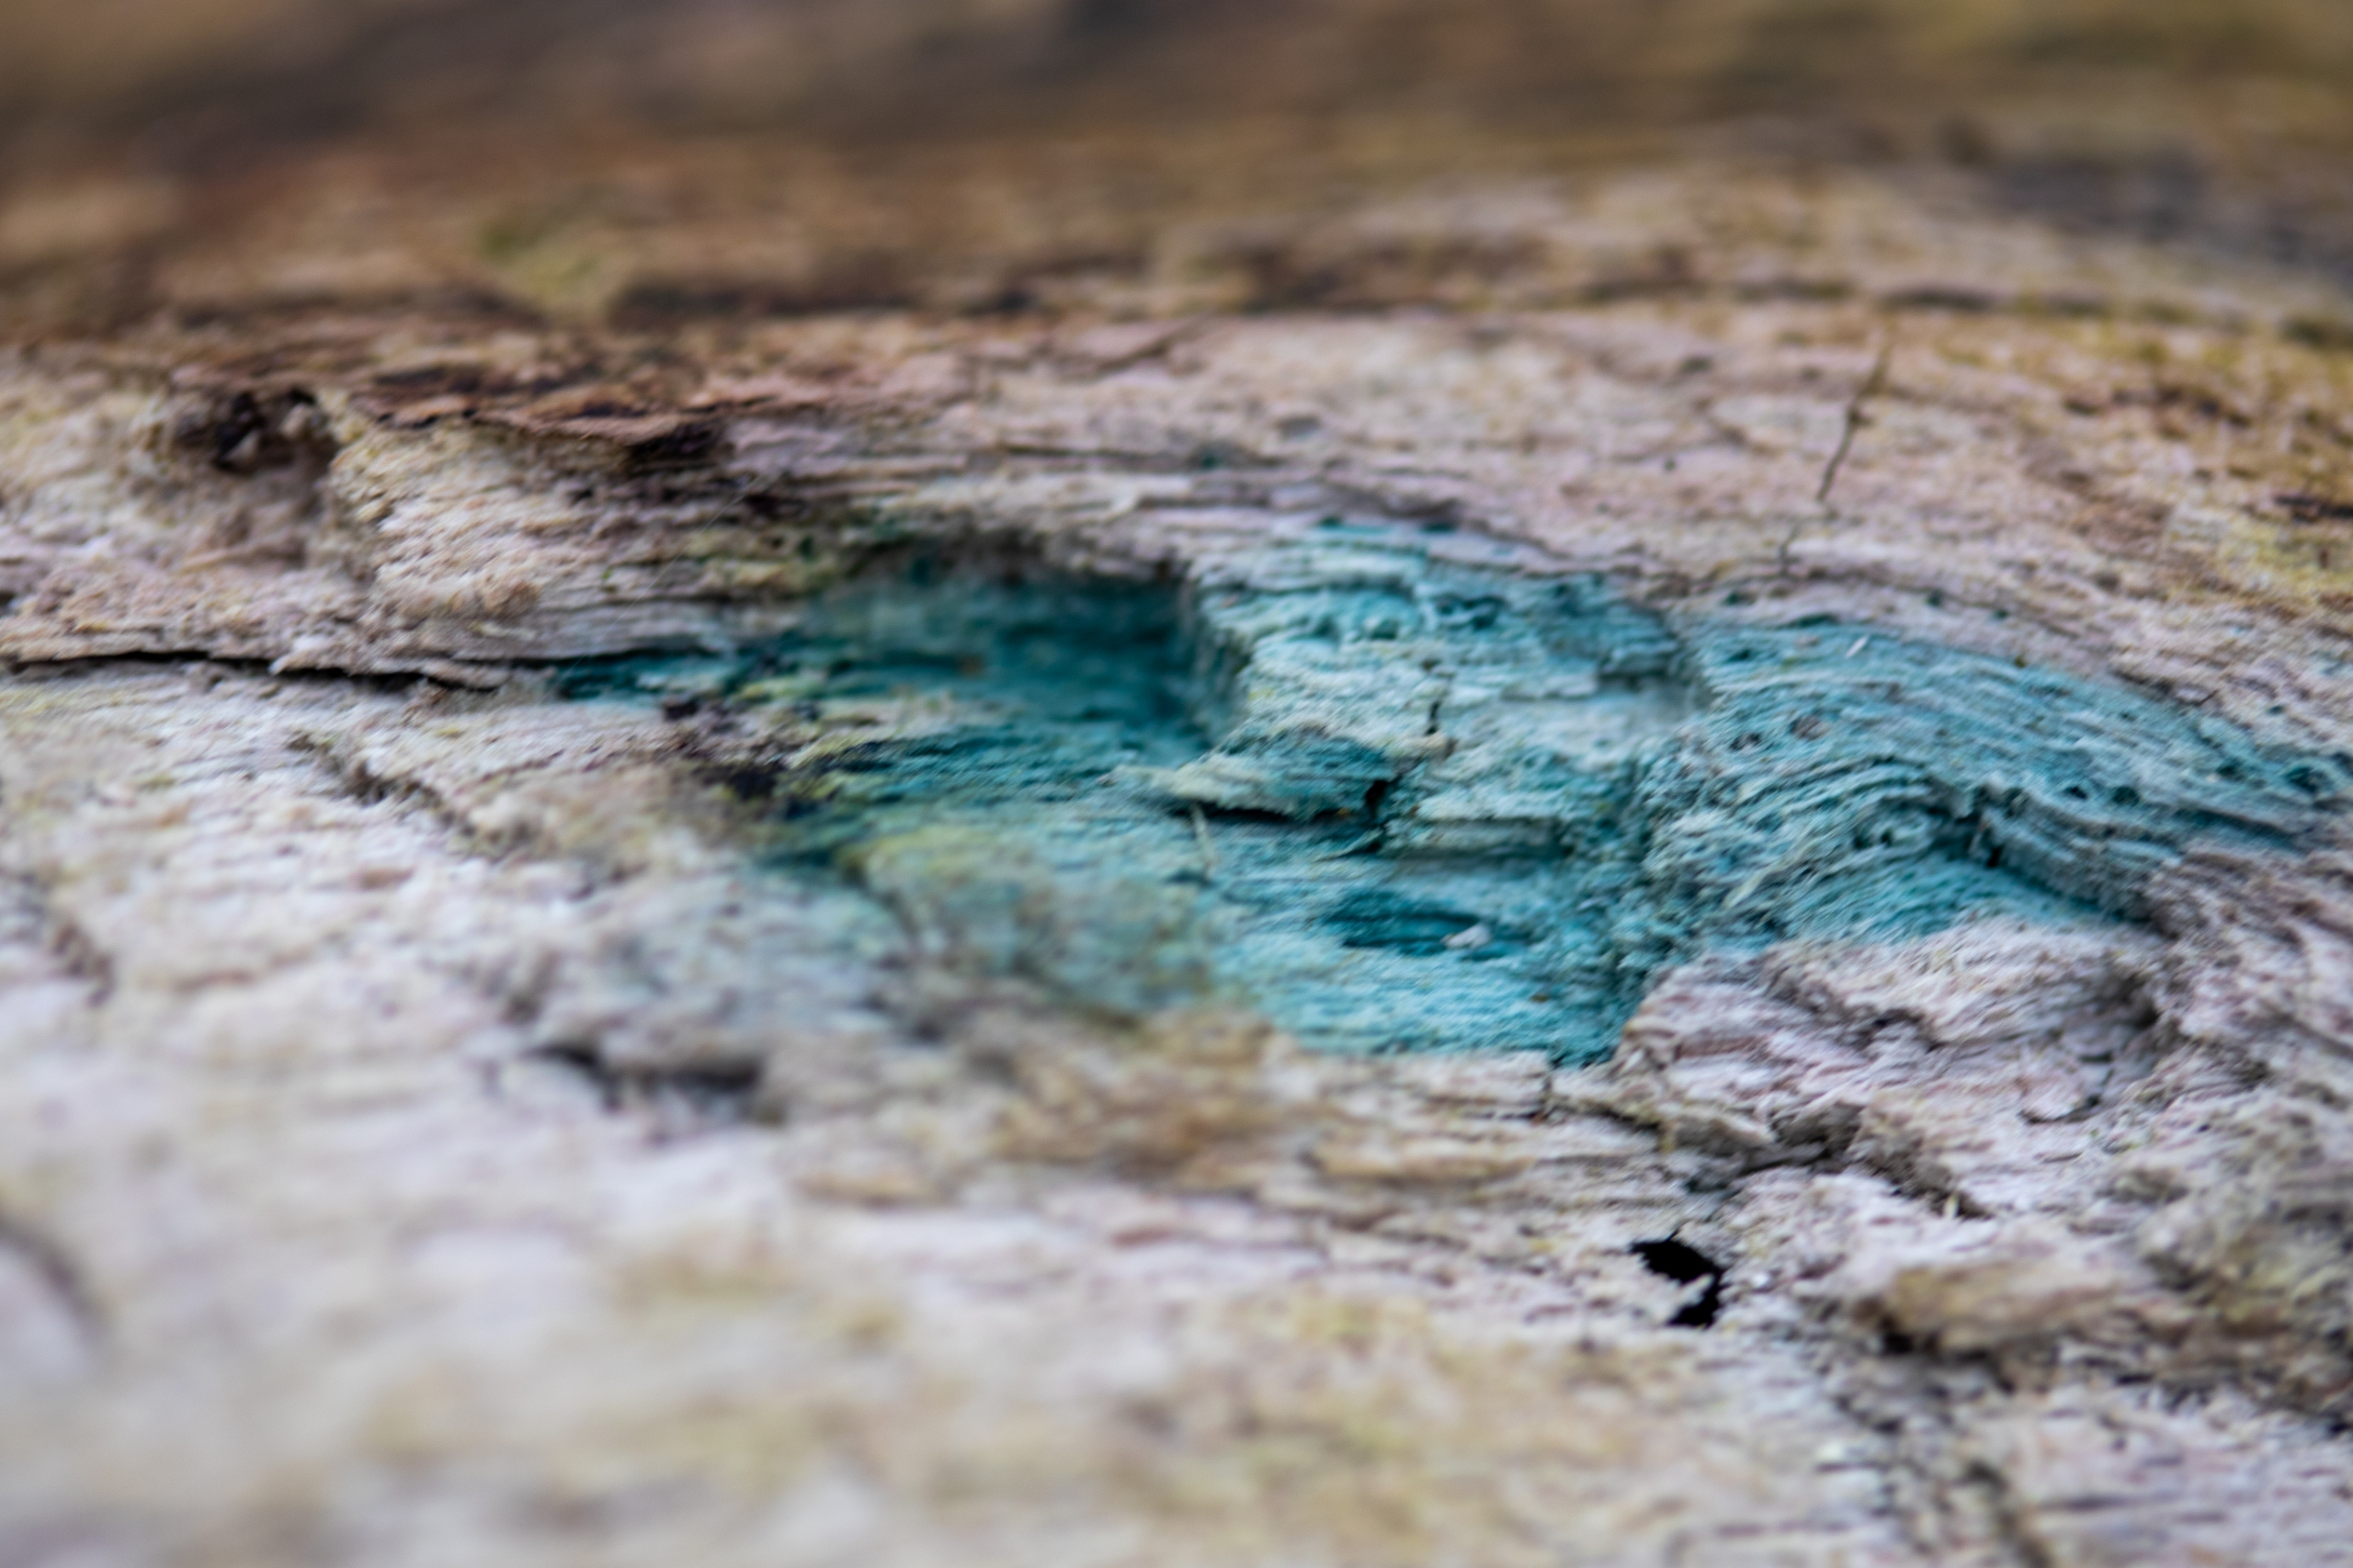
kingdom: Fungi
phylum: Ascomycota
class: Leotiomycetes
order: Helotiales
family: Chlorociboriaceae
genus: Chlorociboria
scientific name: Chlorociboria aeruginascens
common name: Almindelig grønskive
